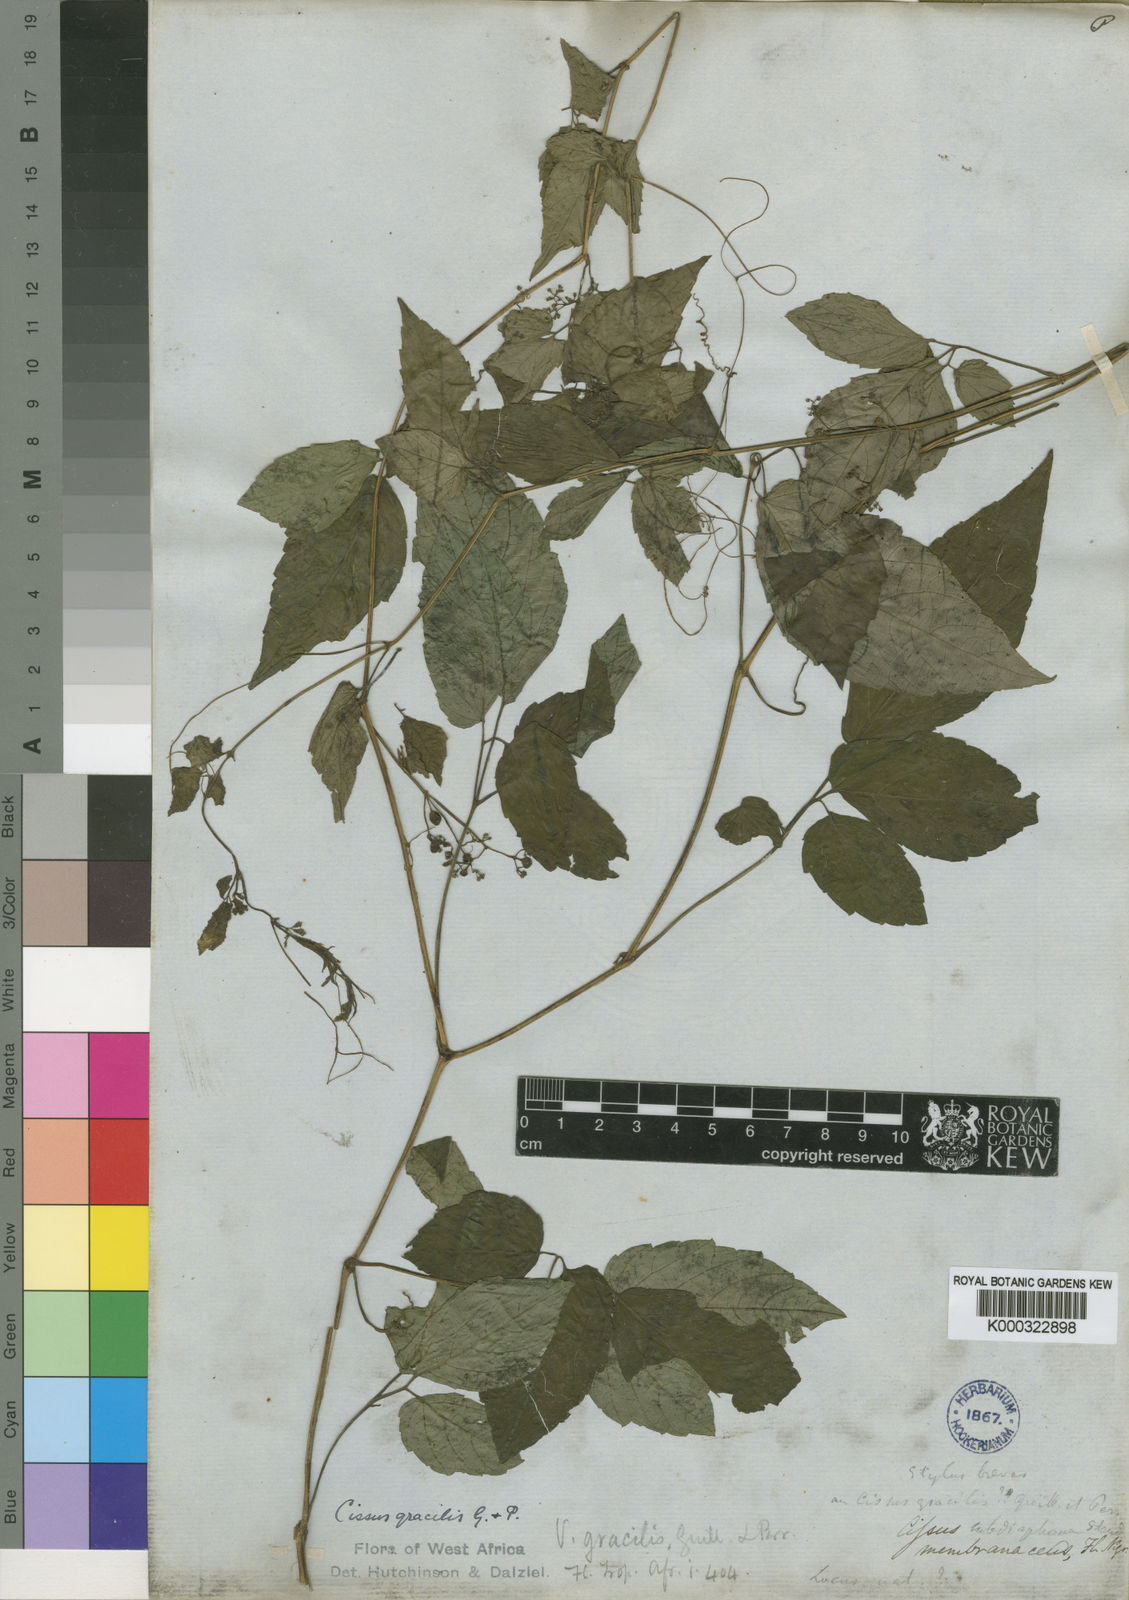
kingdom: Plantae
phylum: Tracheophyta
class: Magnoliopsida
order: Vitales
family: Vitaceae
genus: Afrocayratia
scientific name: Afrocayratia gracilis
